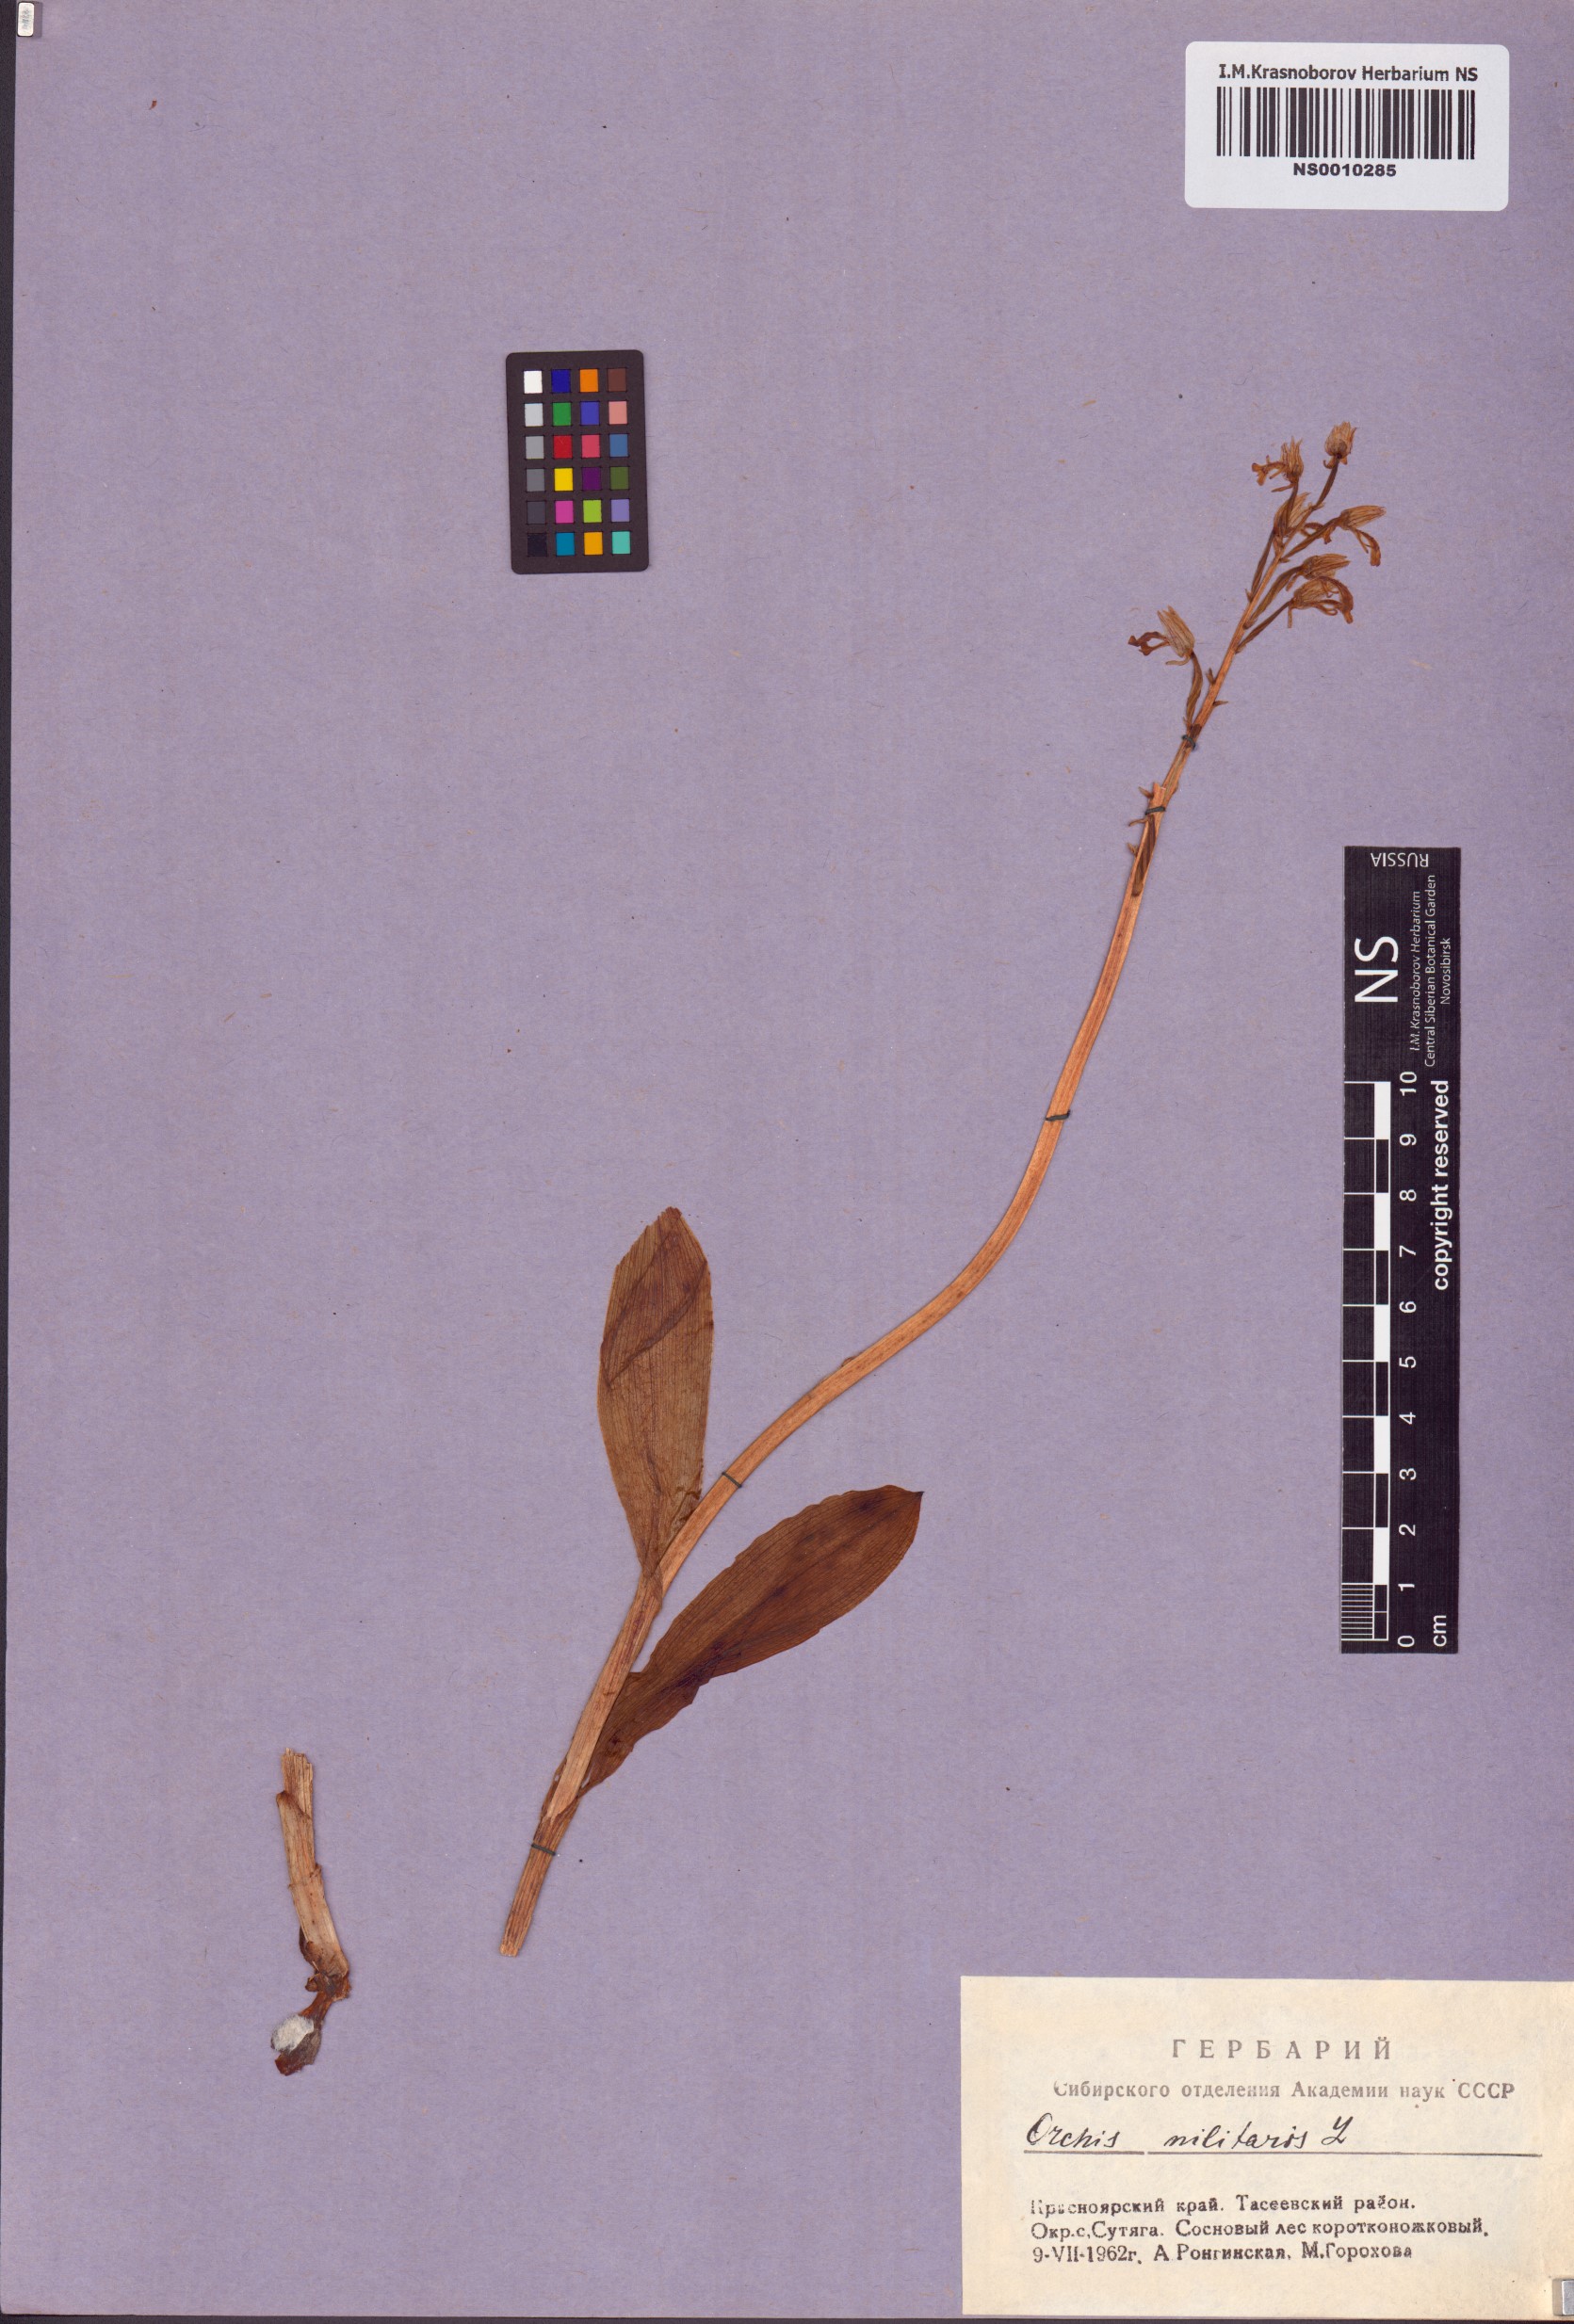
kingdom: Plantae
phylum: Tracheophyta
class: Liliopsida
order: Asparagales
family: Orchidaceae
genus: Orchis
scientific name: Orchis militaris
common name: Military orchid
